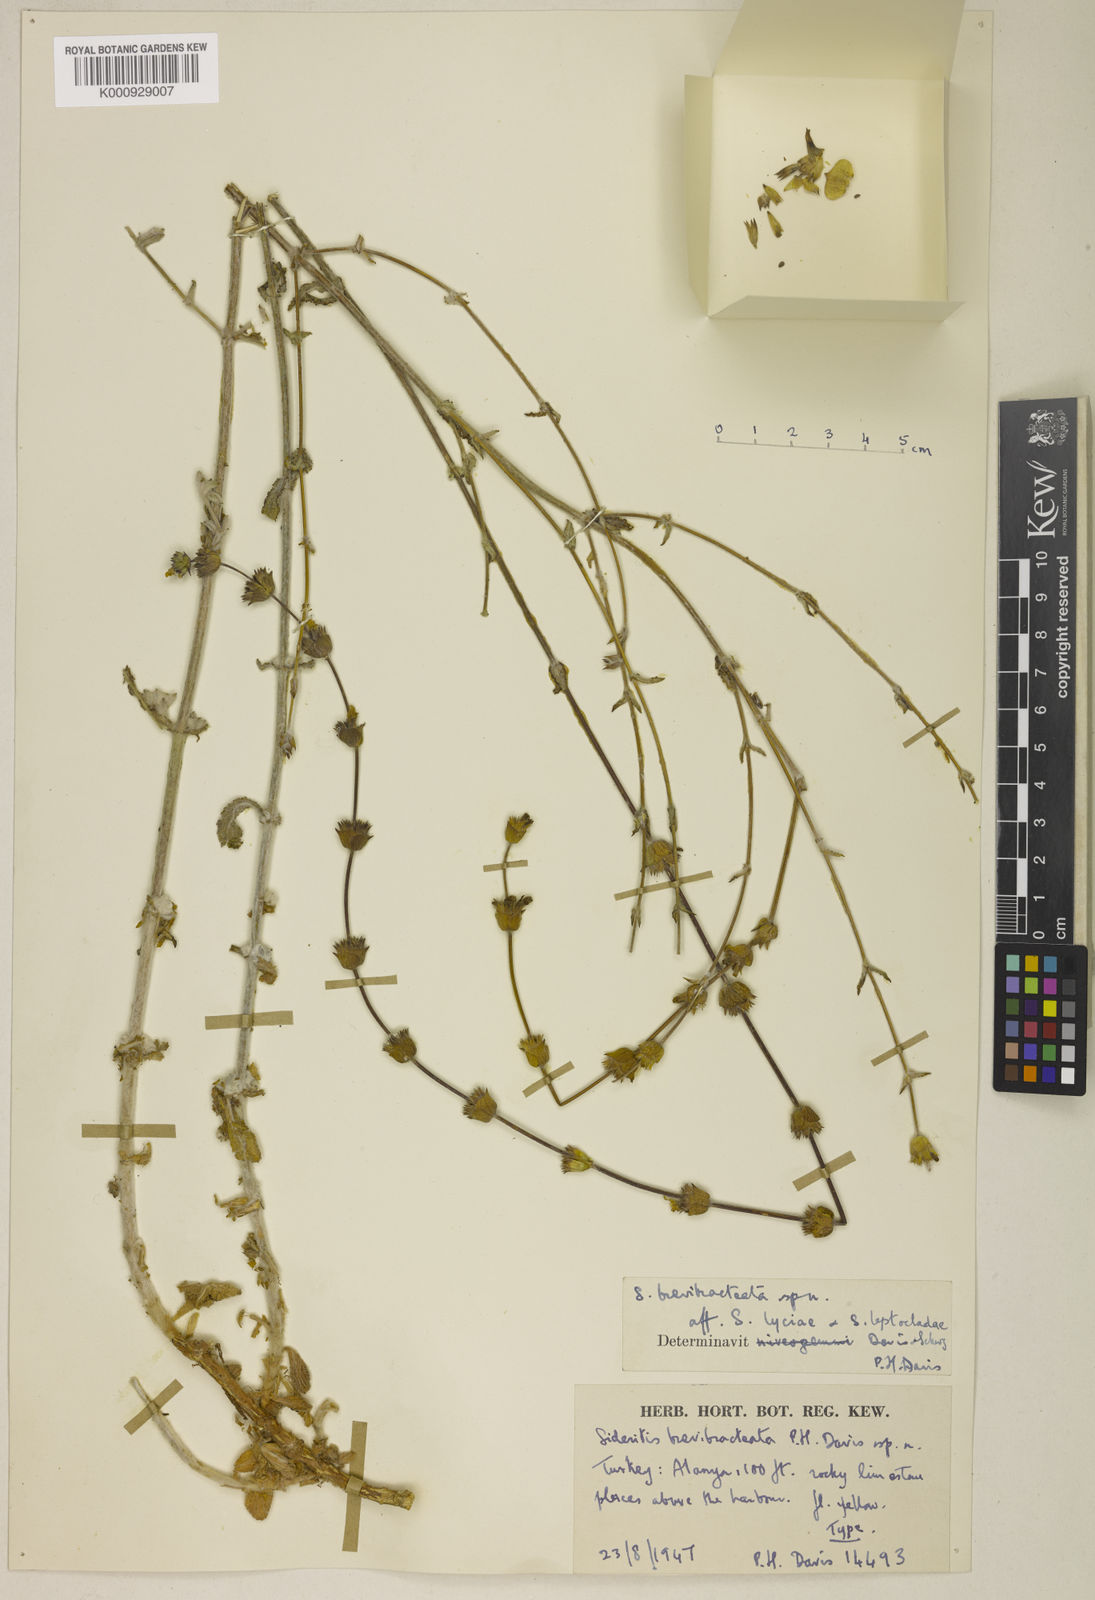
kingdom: Plantae
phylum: Tracheophyta
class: Magnoliopsida
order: Lamiales
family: Lamiaceae
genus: Sideritis
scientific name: Sideritis brevibracteata
